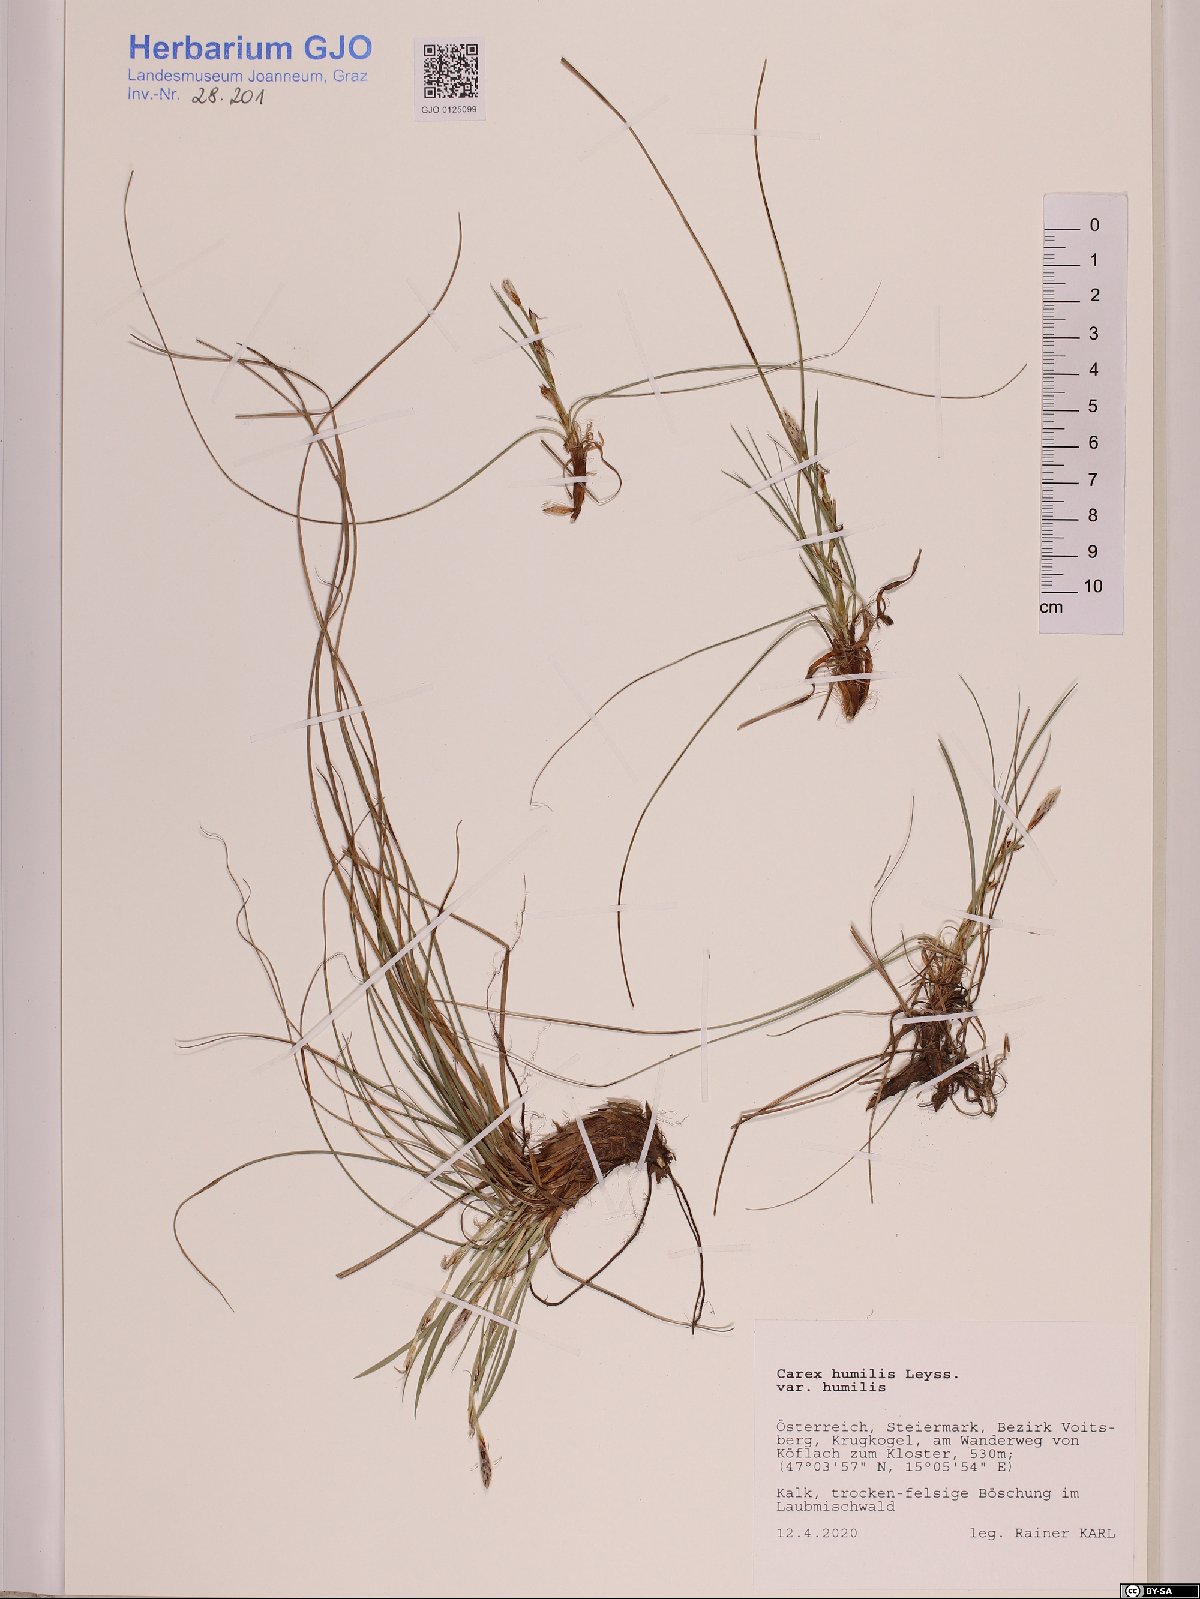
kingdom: Plantae
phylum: Tracheophyta
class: Liliopsida
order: Poales
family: Cyperaceae
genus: Carex
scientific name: Carex humilis
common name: Dwarf sedge
